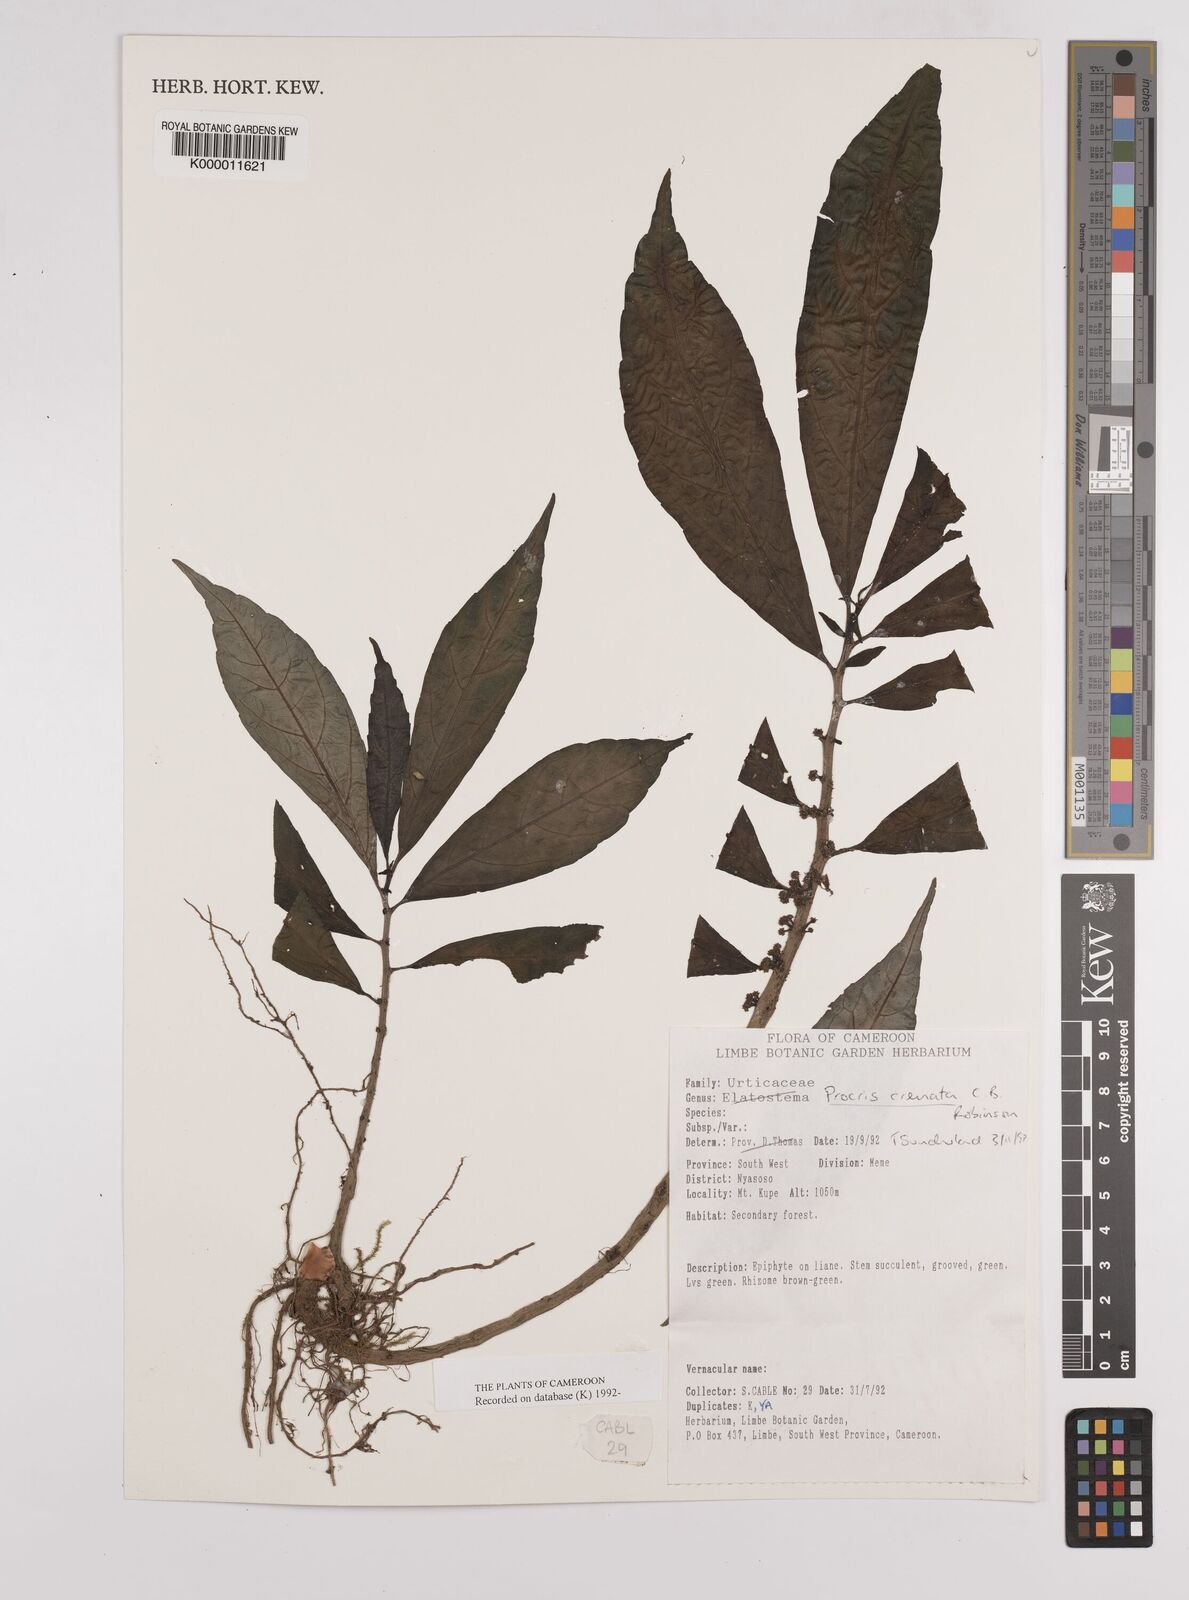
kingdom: Plantae
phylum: Tracheophyta
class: Magnoliopsida
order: Rosales
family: Urticaceae
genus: Procris
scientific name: Procris crenata
